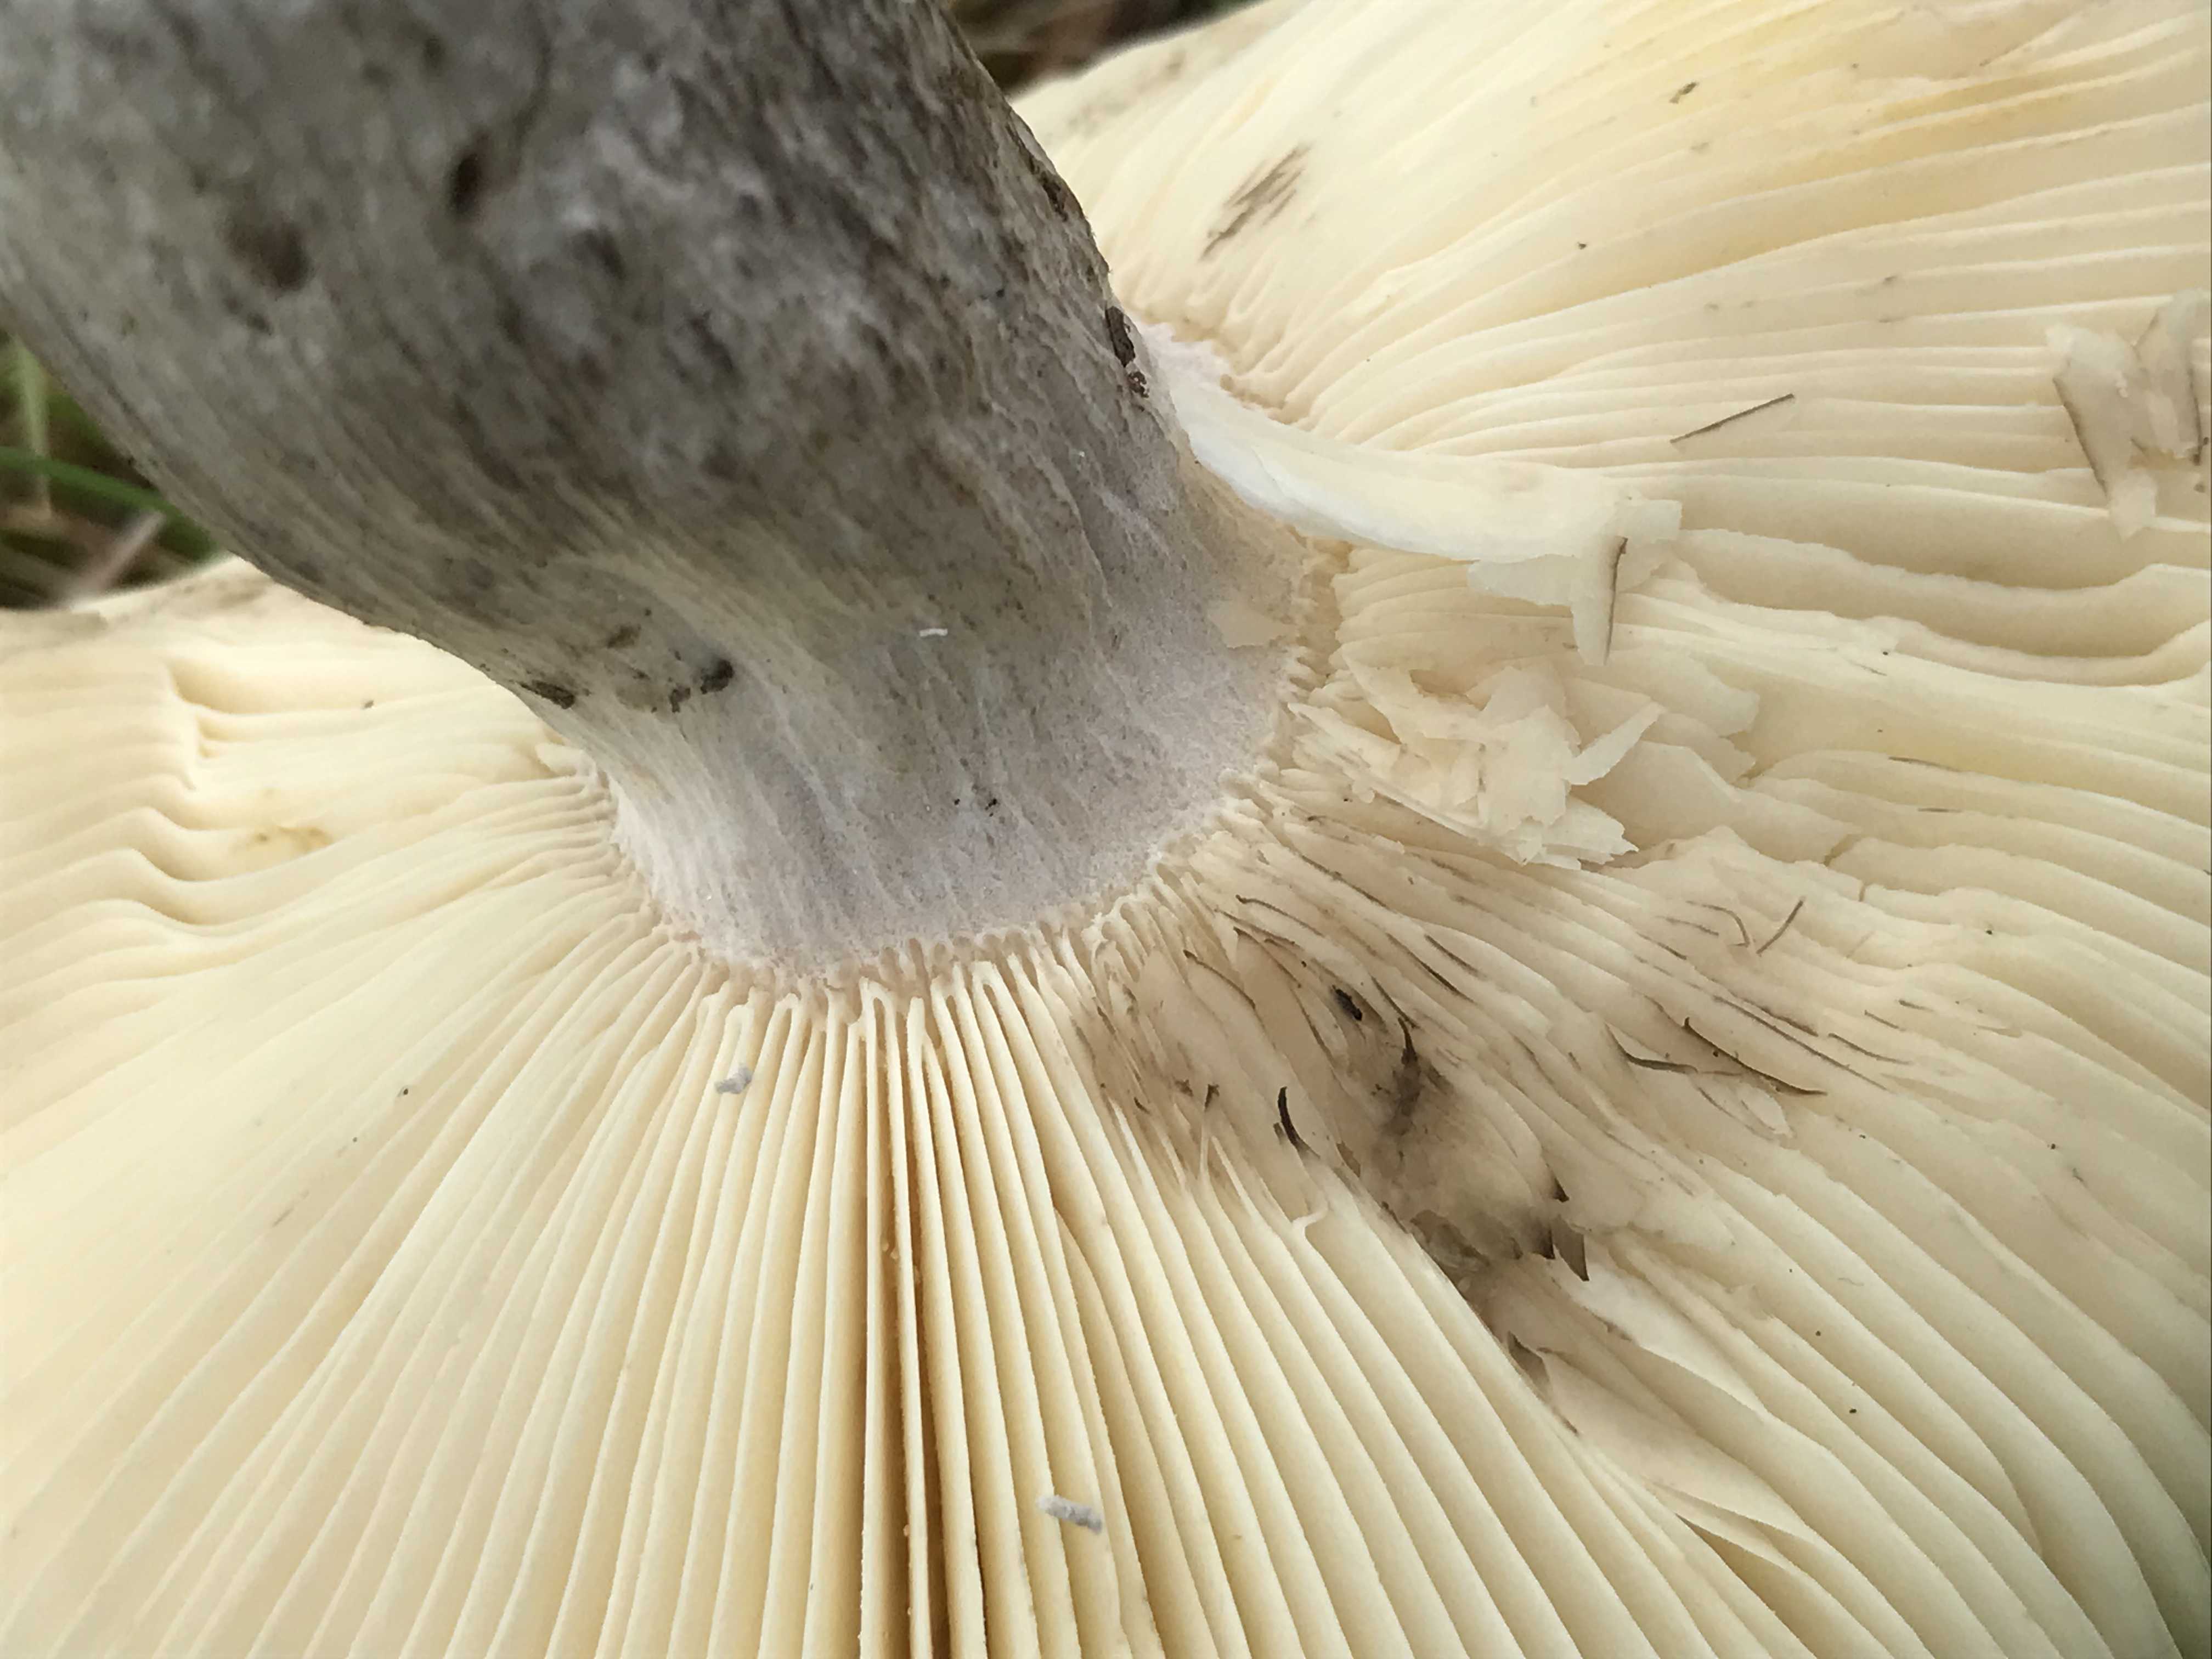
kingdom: Fungi
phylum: Basidiomycota
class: Agaricomycetes
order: Russulales
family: Russulaceae
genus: Russula
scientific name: Russula decolorans
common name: afblegende skørhat
